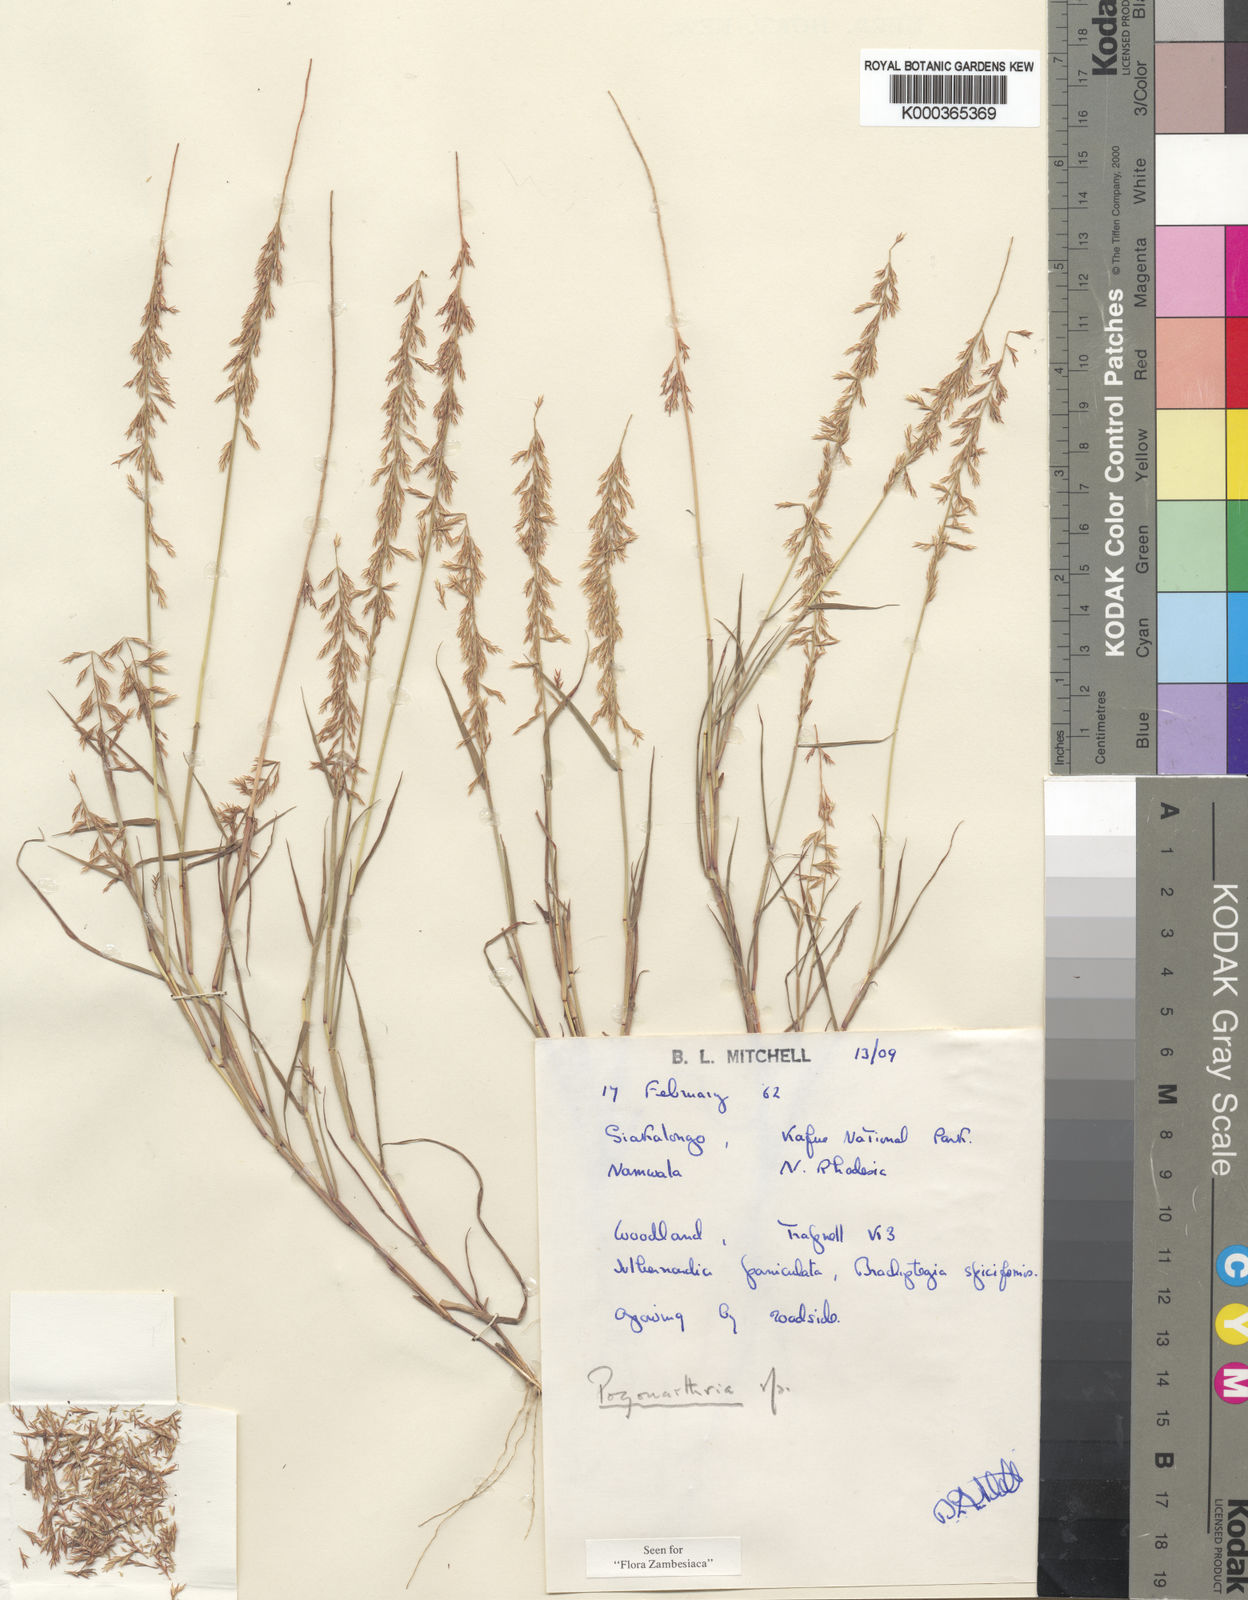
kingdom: Plantae
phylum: Tracheophyta
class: Liliopsida
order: Poales
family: Poaceae
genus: Pogonarthria
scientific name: Pogonarthria refracta
